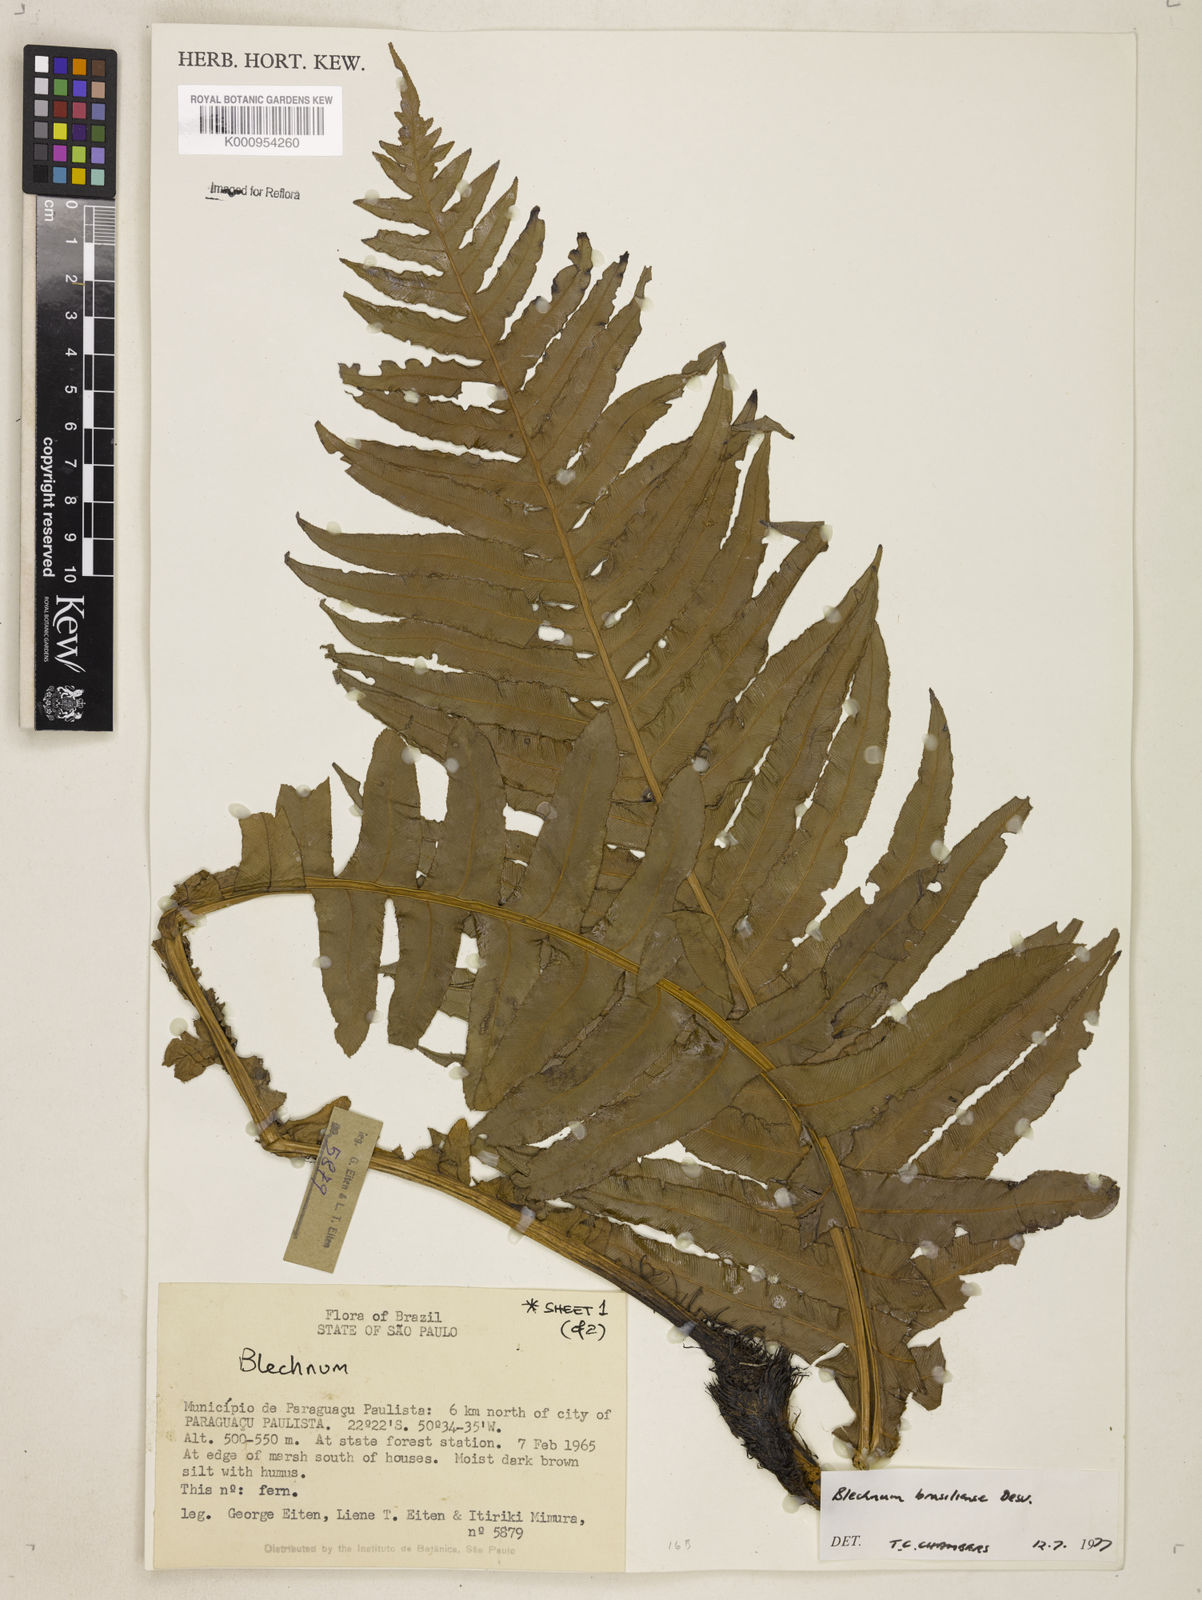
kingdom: Plantae
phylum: Tracheophyta
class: Polypodiopsida
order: Polypodiales
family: Blechnaceae
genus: Neoblechnum
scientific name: Neoblechnum brasiliense
